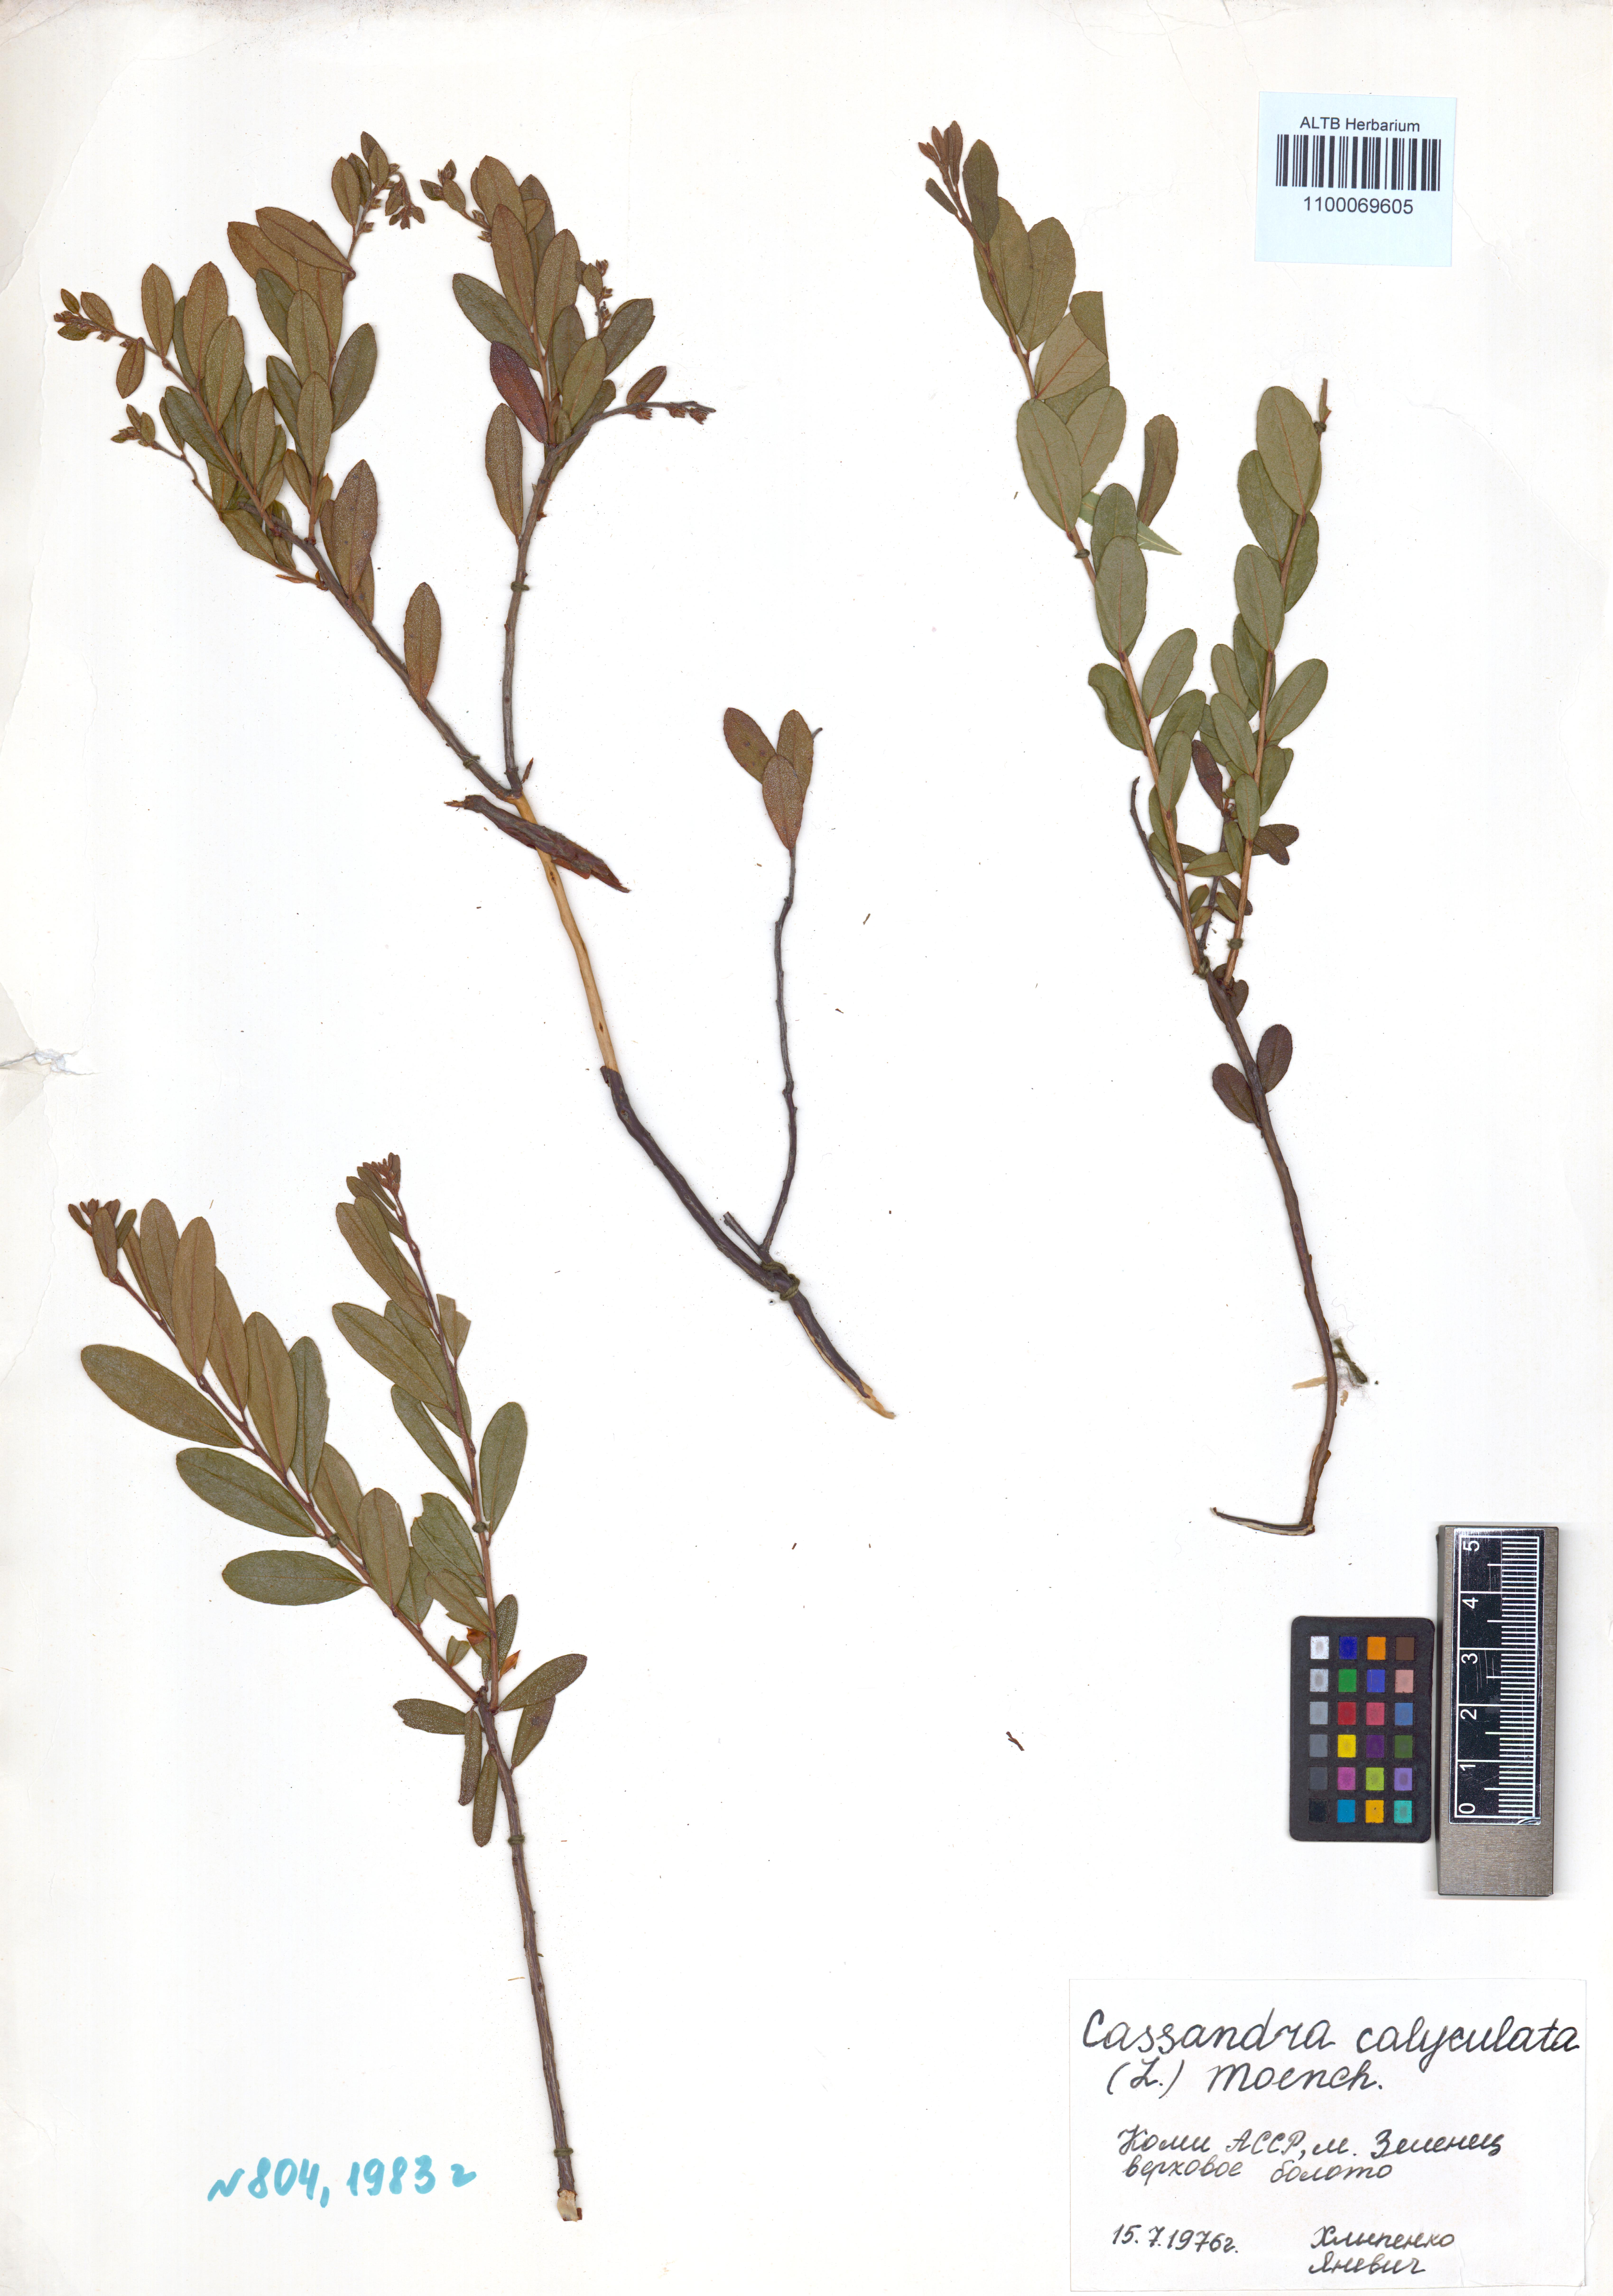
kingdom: Plantae
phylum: Tracheophyta
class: Magnoliopsida
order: Ericales
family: Ericaceae
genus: Chamaedaphne
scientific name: Chamaedaphne calyculata
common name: Leatherleaf
